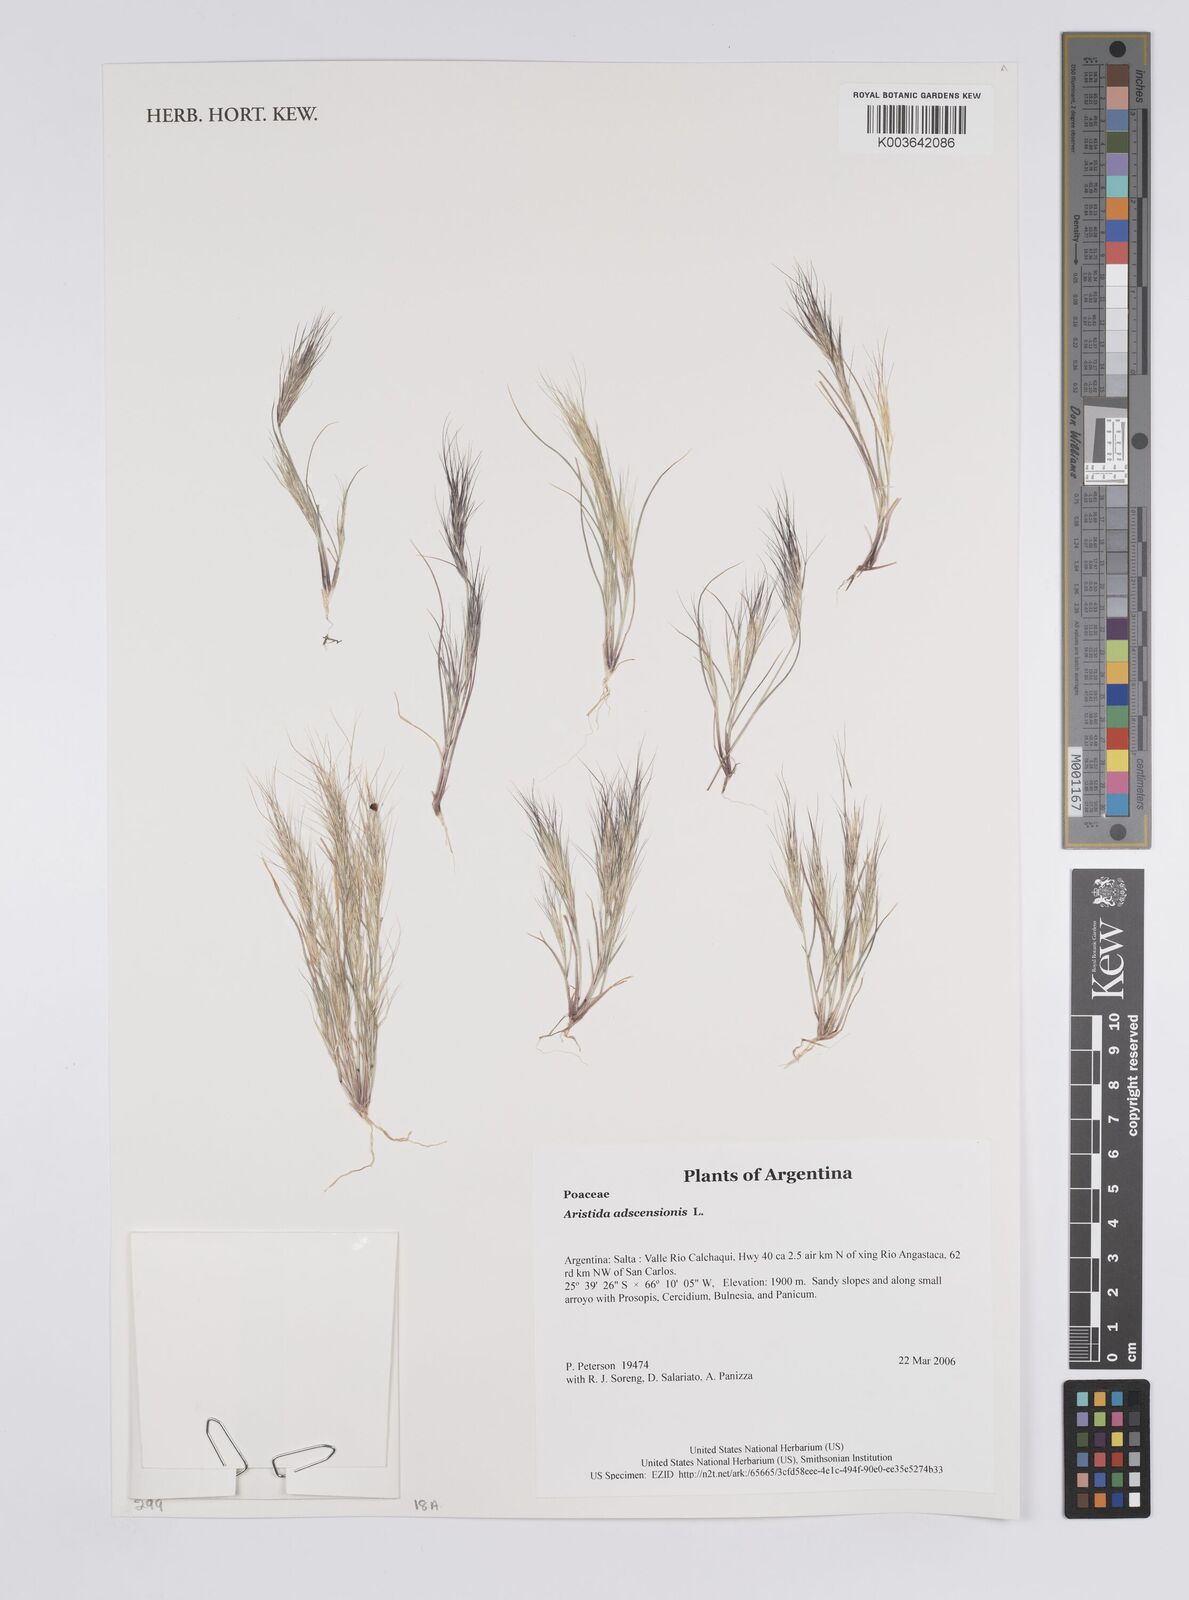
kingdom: Plantae
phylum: Tracheophyta
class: Liliopsida
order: Poales
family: Poaceae
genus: Aristida
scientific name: Aristida adscensionis
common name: Sixweeks threeawn
